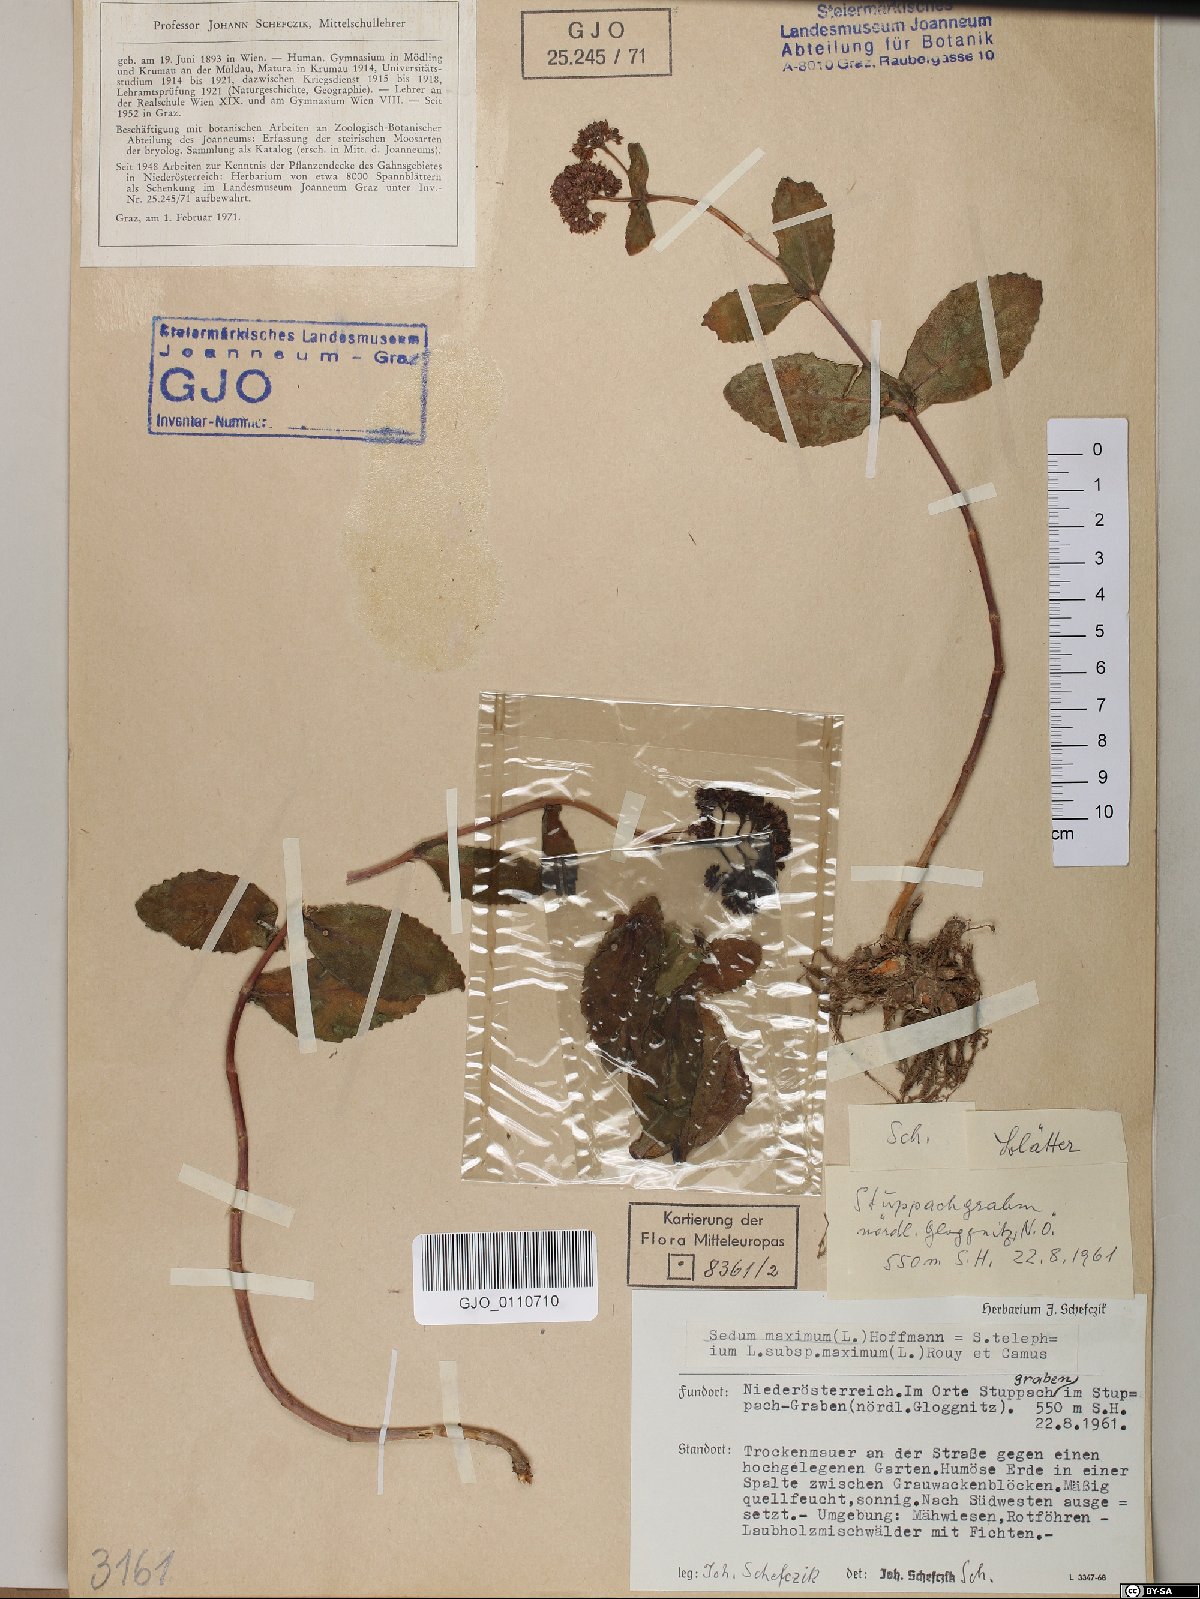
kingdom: Plantae
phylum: Tracheophyta
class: Magnoliopsida
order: Saxifragales
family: Crassulaceae
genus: Hylotelephium
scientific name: Hylotelephium maximum
